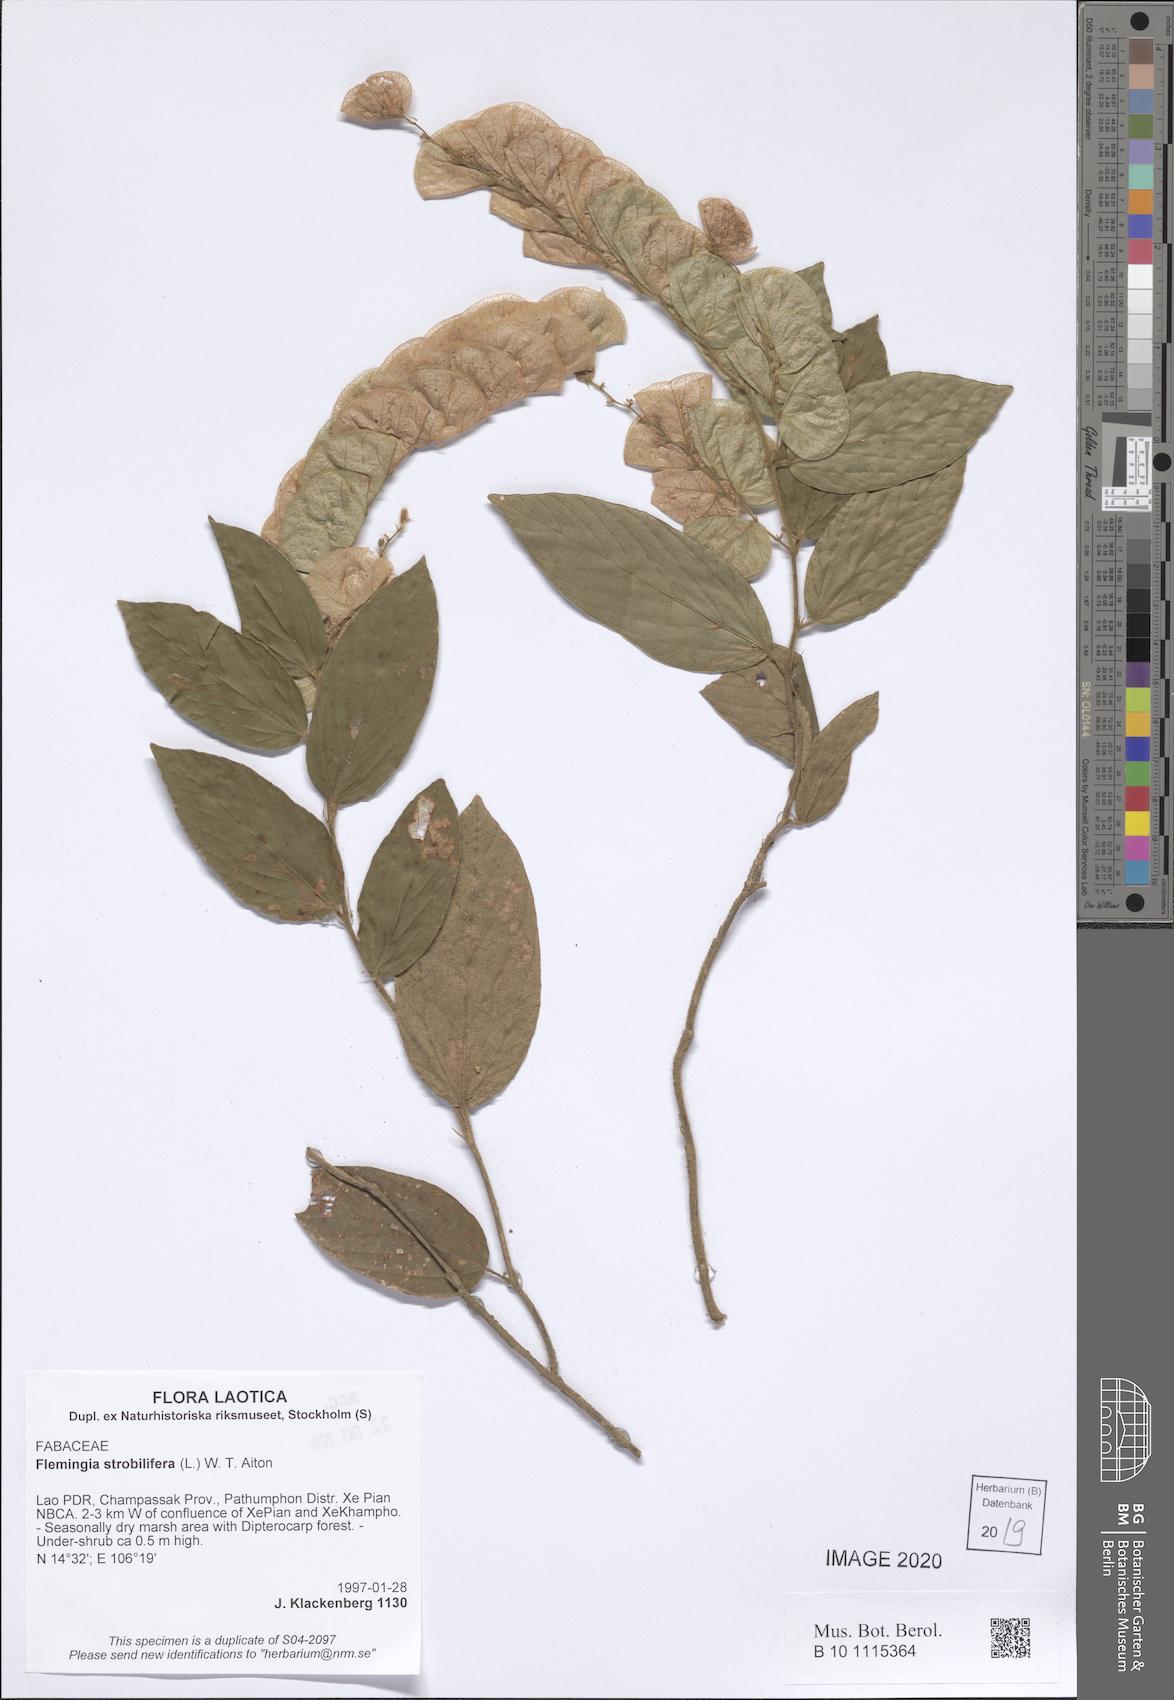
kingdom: Plantae
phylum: Tracheophyta
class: Magnoliopsida
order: Fabales
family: Fabaceae
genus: Flemingia
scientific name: Flemingia strobilifera
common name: Wild hops
